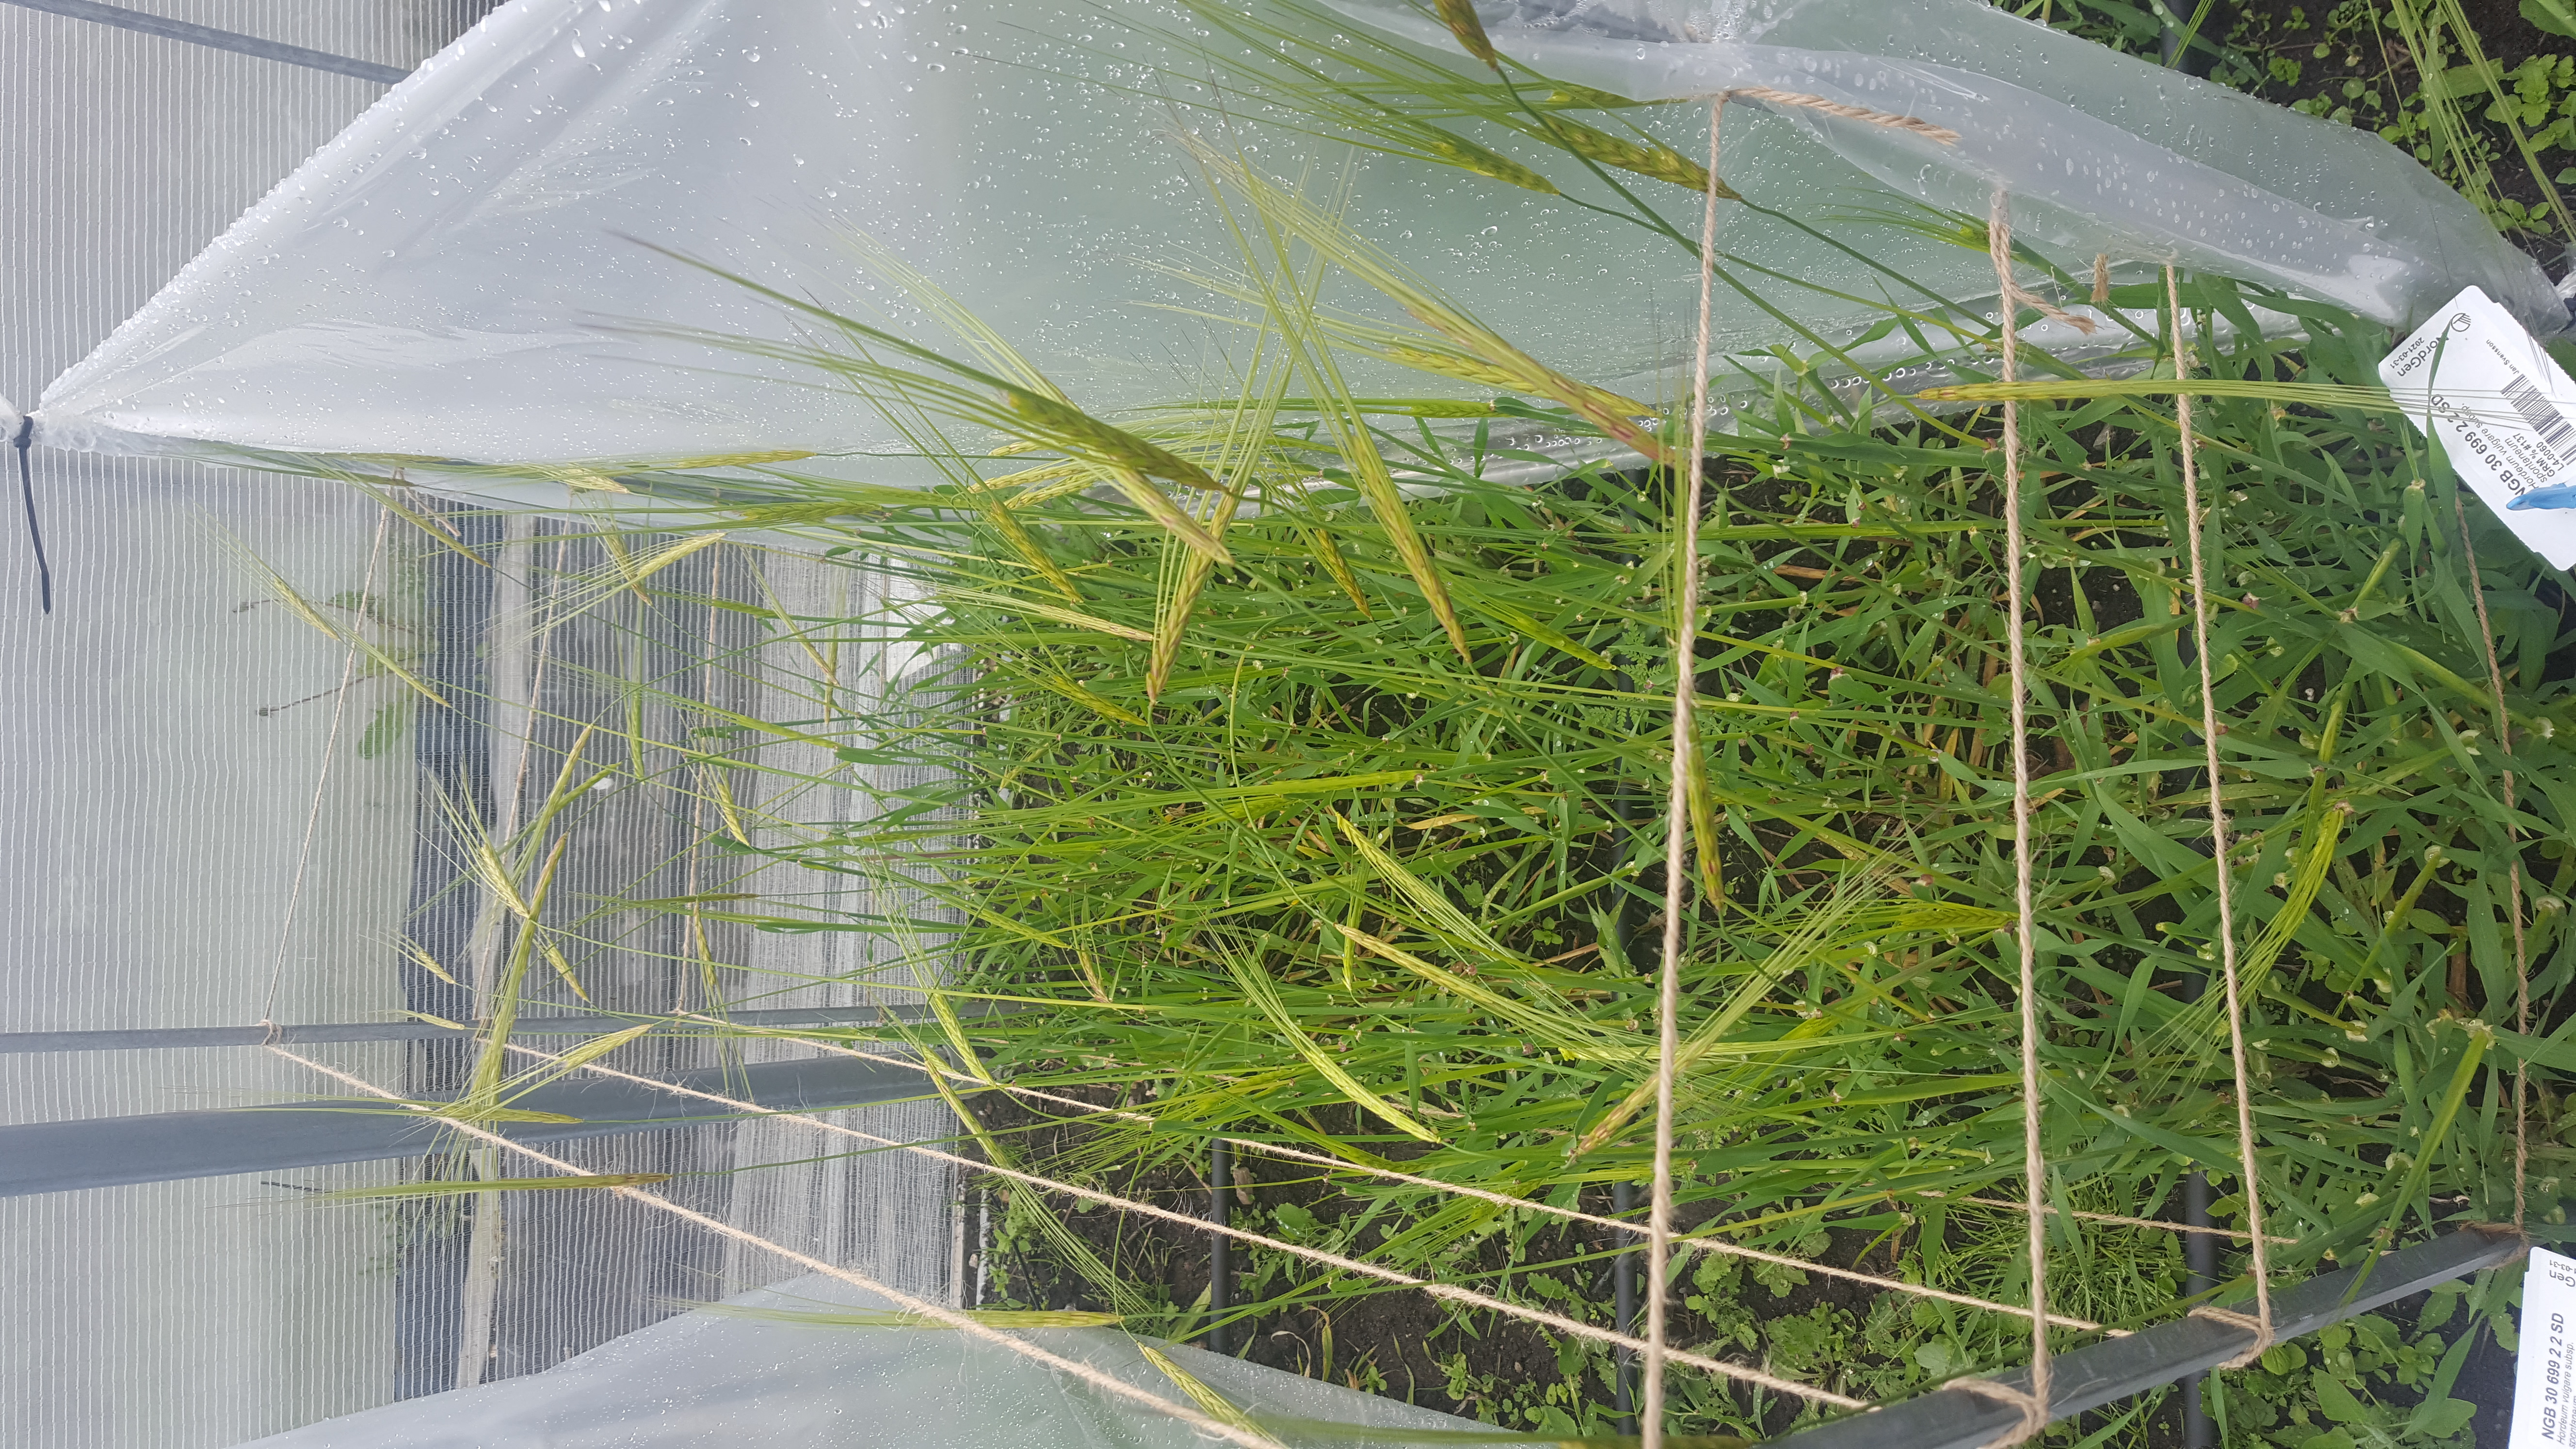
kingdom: Plantae
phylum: Tracheophyta
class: Liliopsida
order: Poales
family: Poaceae
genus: Hordeum
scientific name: Hordeum spontaneum
